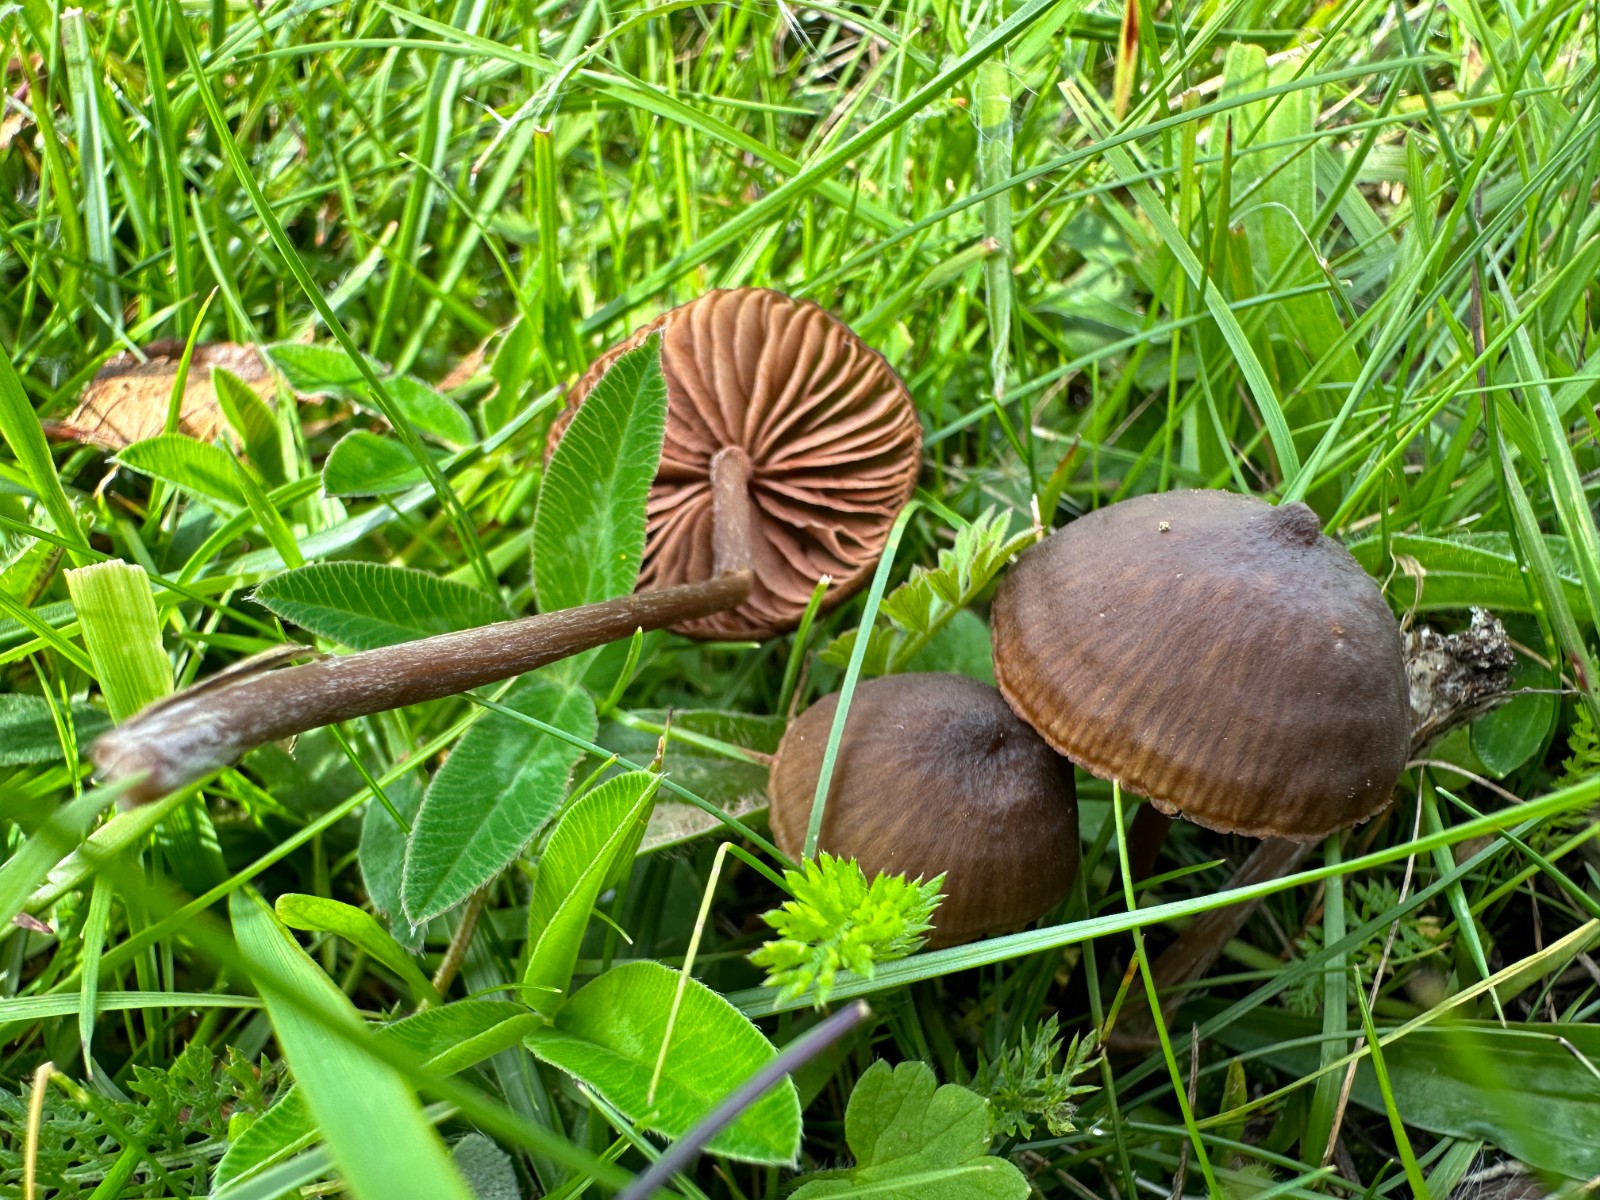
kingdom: Fungi
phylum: Basidiomycota
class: Agaricomycetes
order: Agaricales
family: Entolomataceae
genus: Entoloma
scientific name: Entoloma clandestinum
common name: tykbladet rødblad
